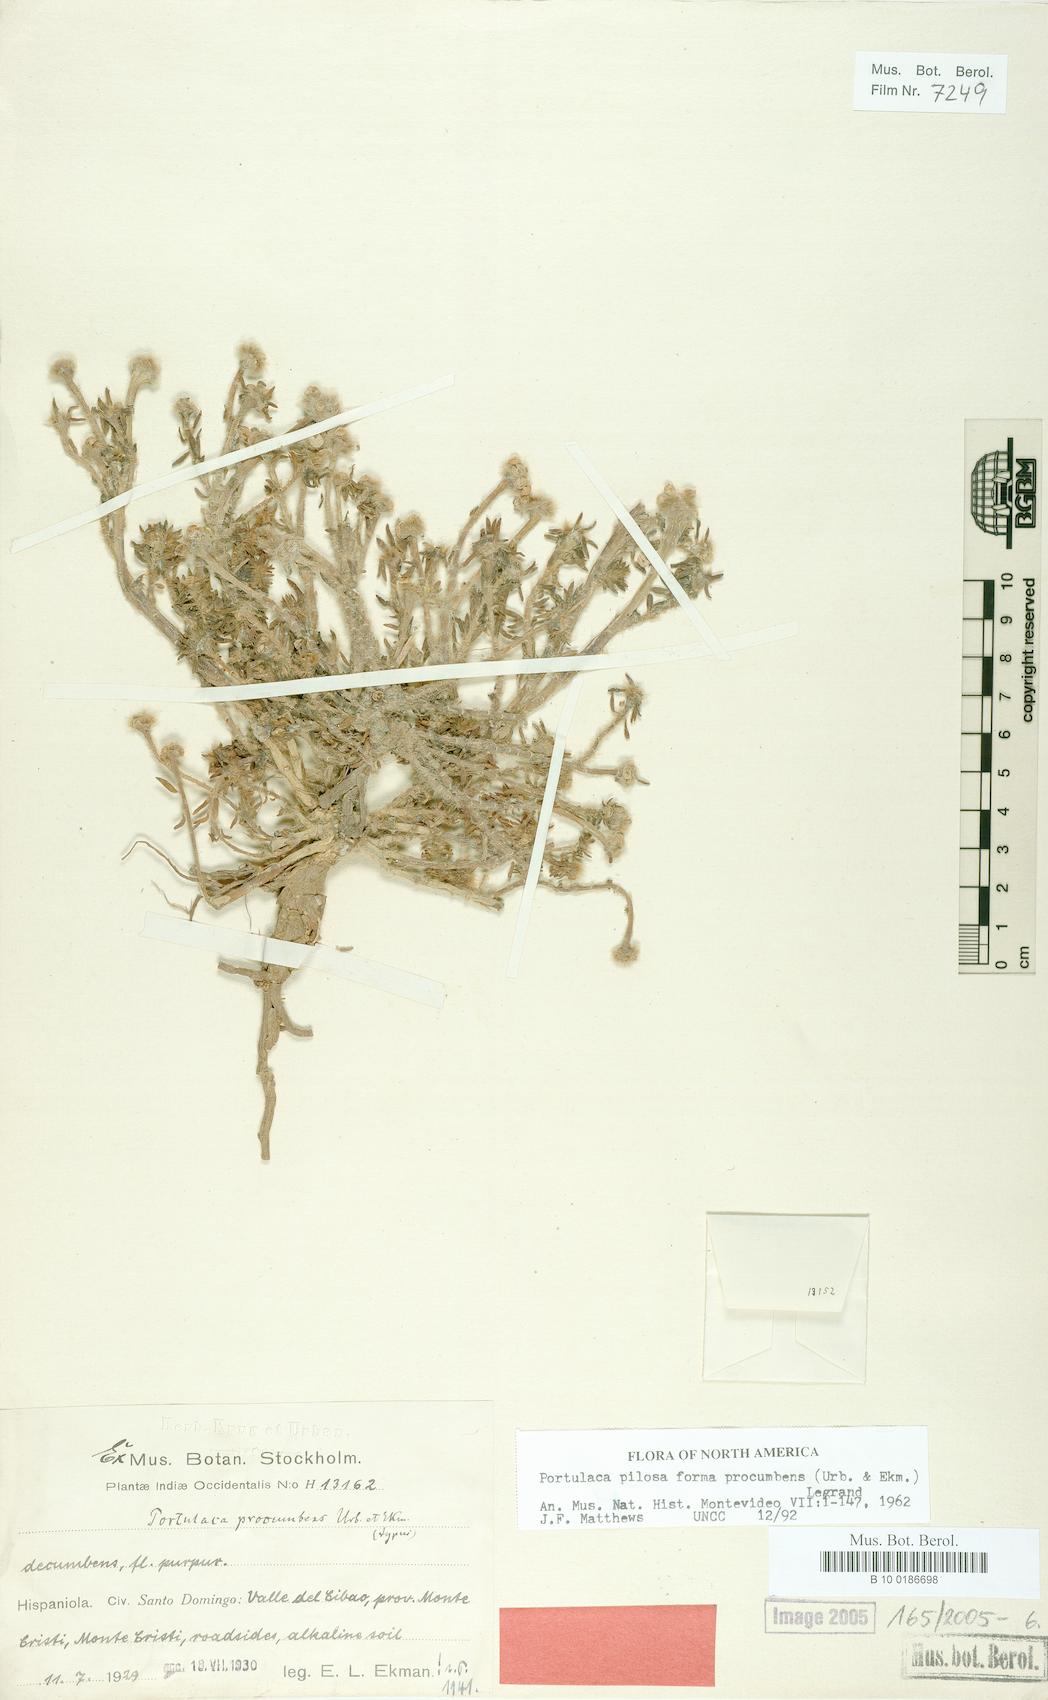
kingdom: Plantae
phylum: Tracheophyta
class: Magnoliopsida
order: Caryophyllales
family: Portulacaceae
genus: Portulaca
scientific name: Portulaca pilosa
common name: Kiss me quick
